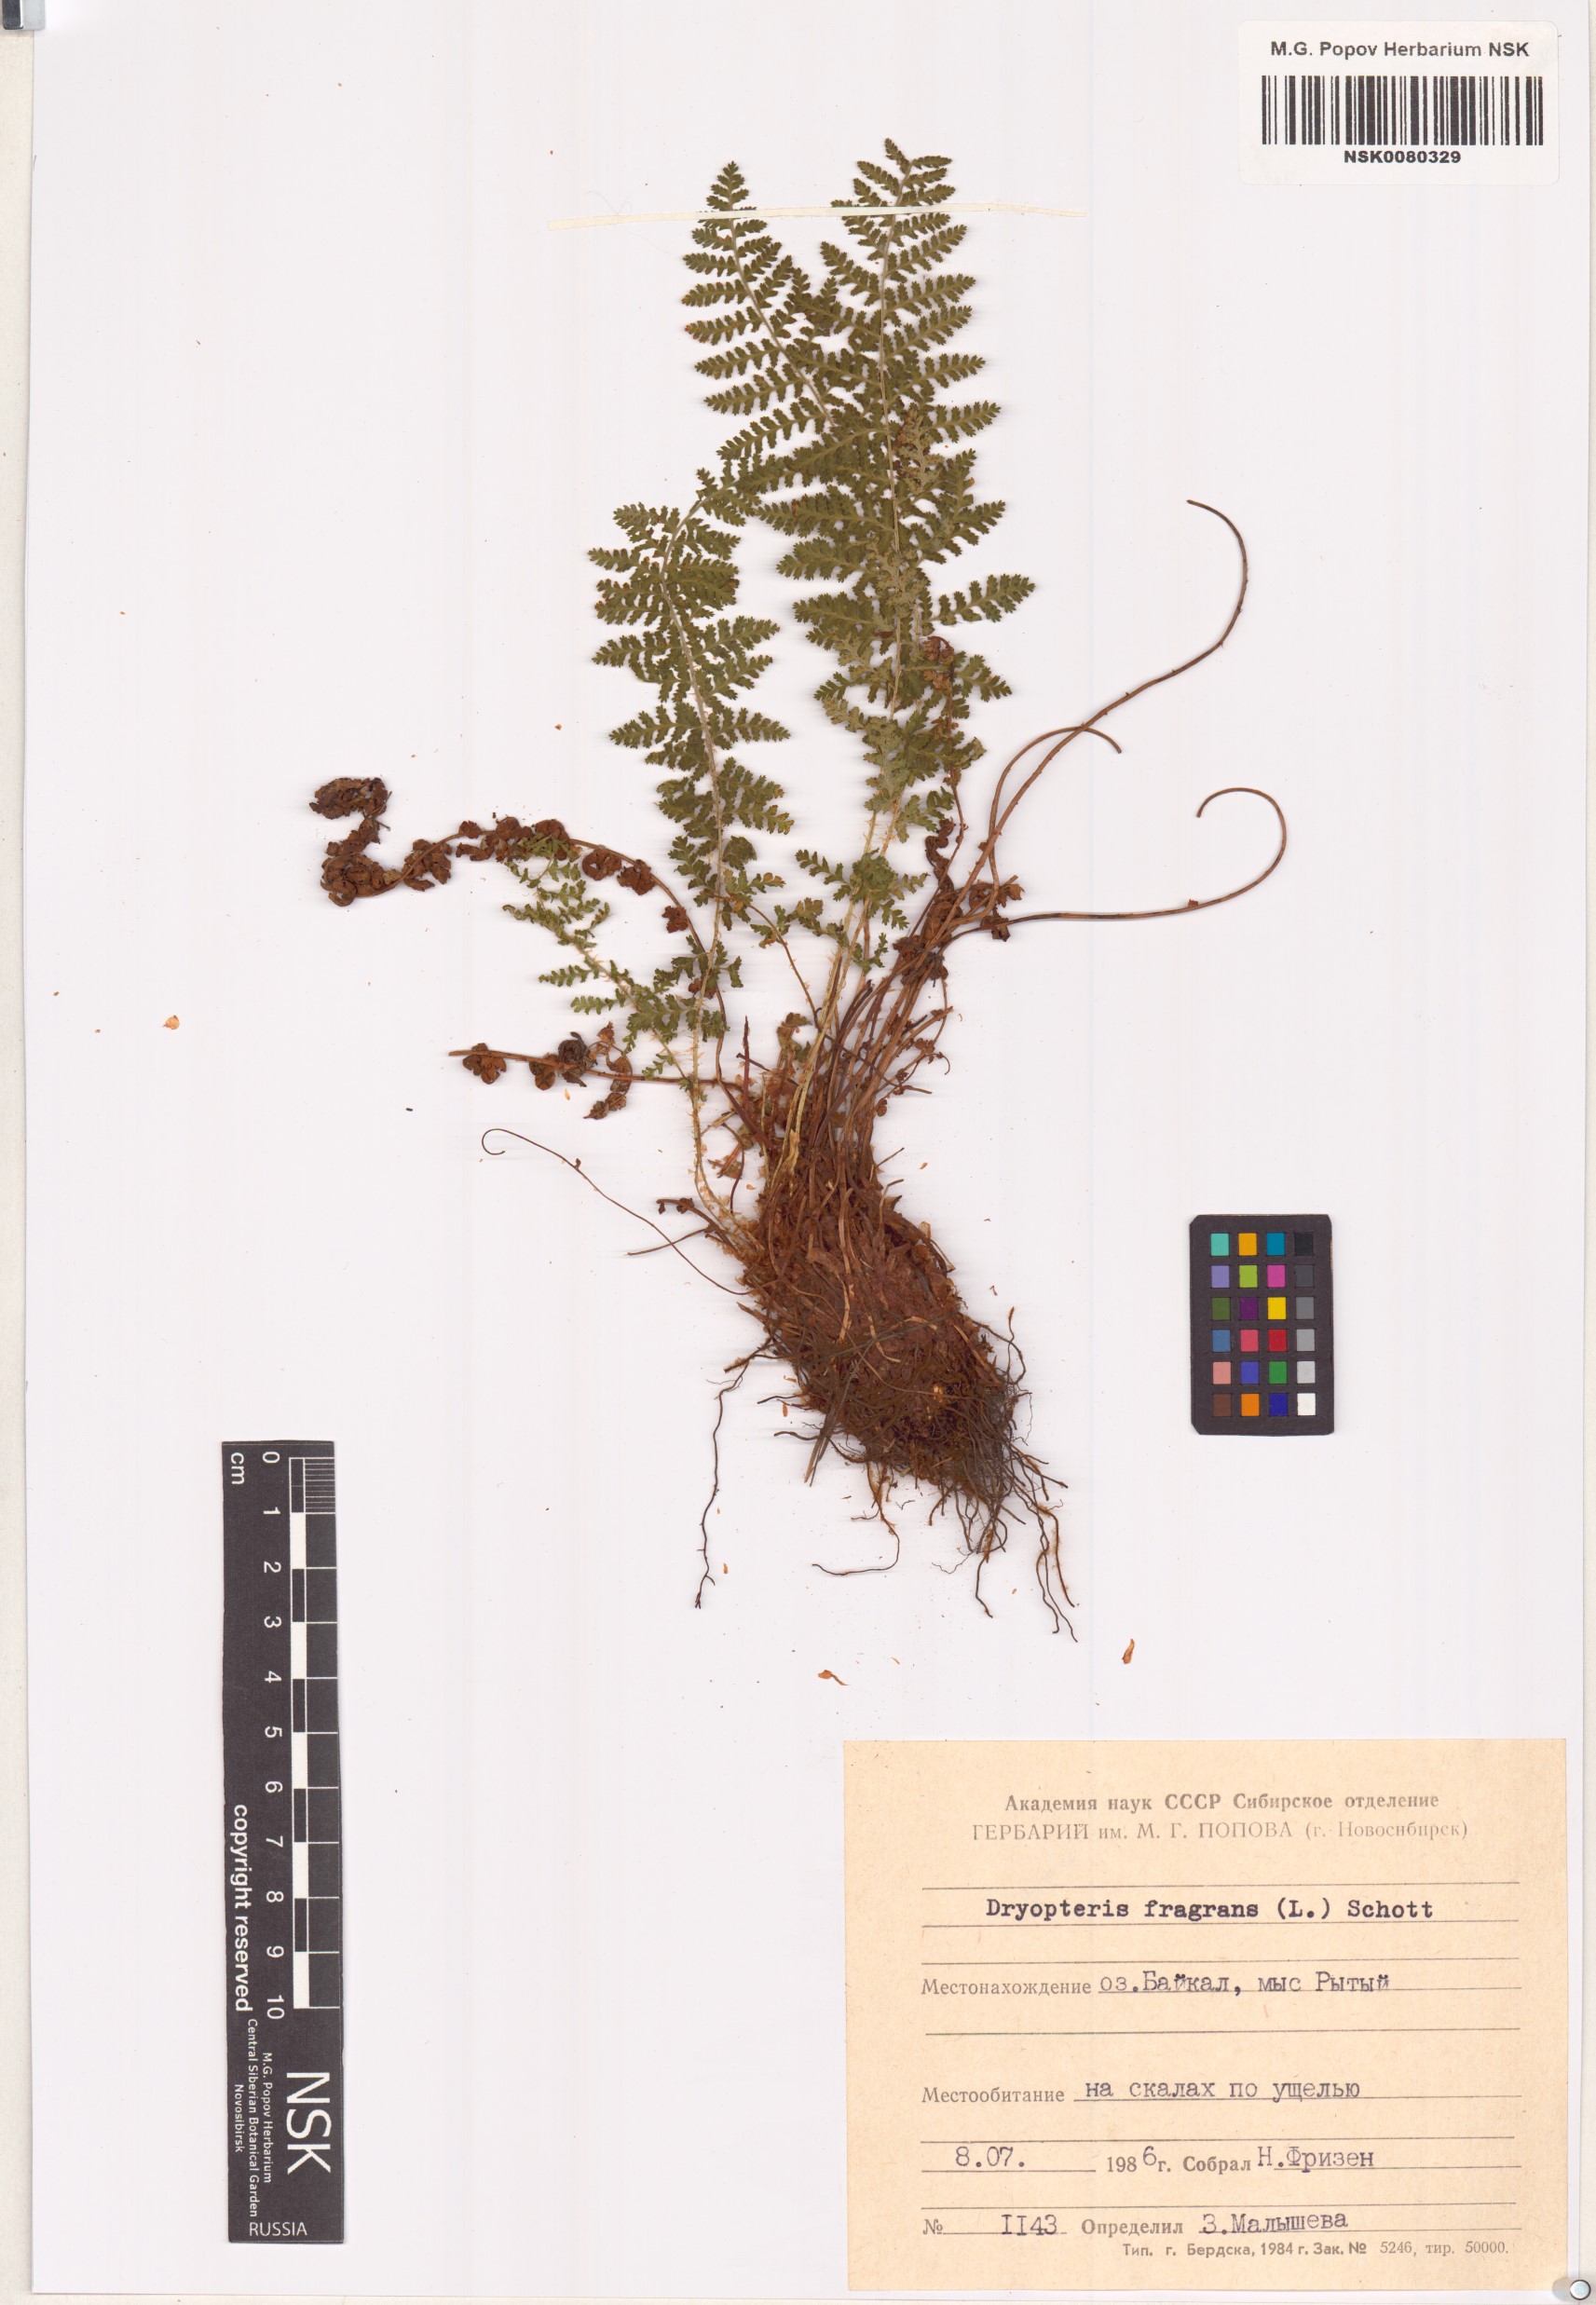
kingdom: Plantae
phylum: Tracheophyta
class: Polypodiopsida
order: Polypodiales
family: Dryopteridaceae
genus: Dryopteris
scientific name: Dryopteris fragrans
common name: Fragrant wood fern
